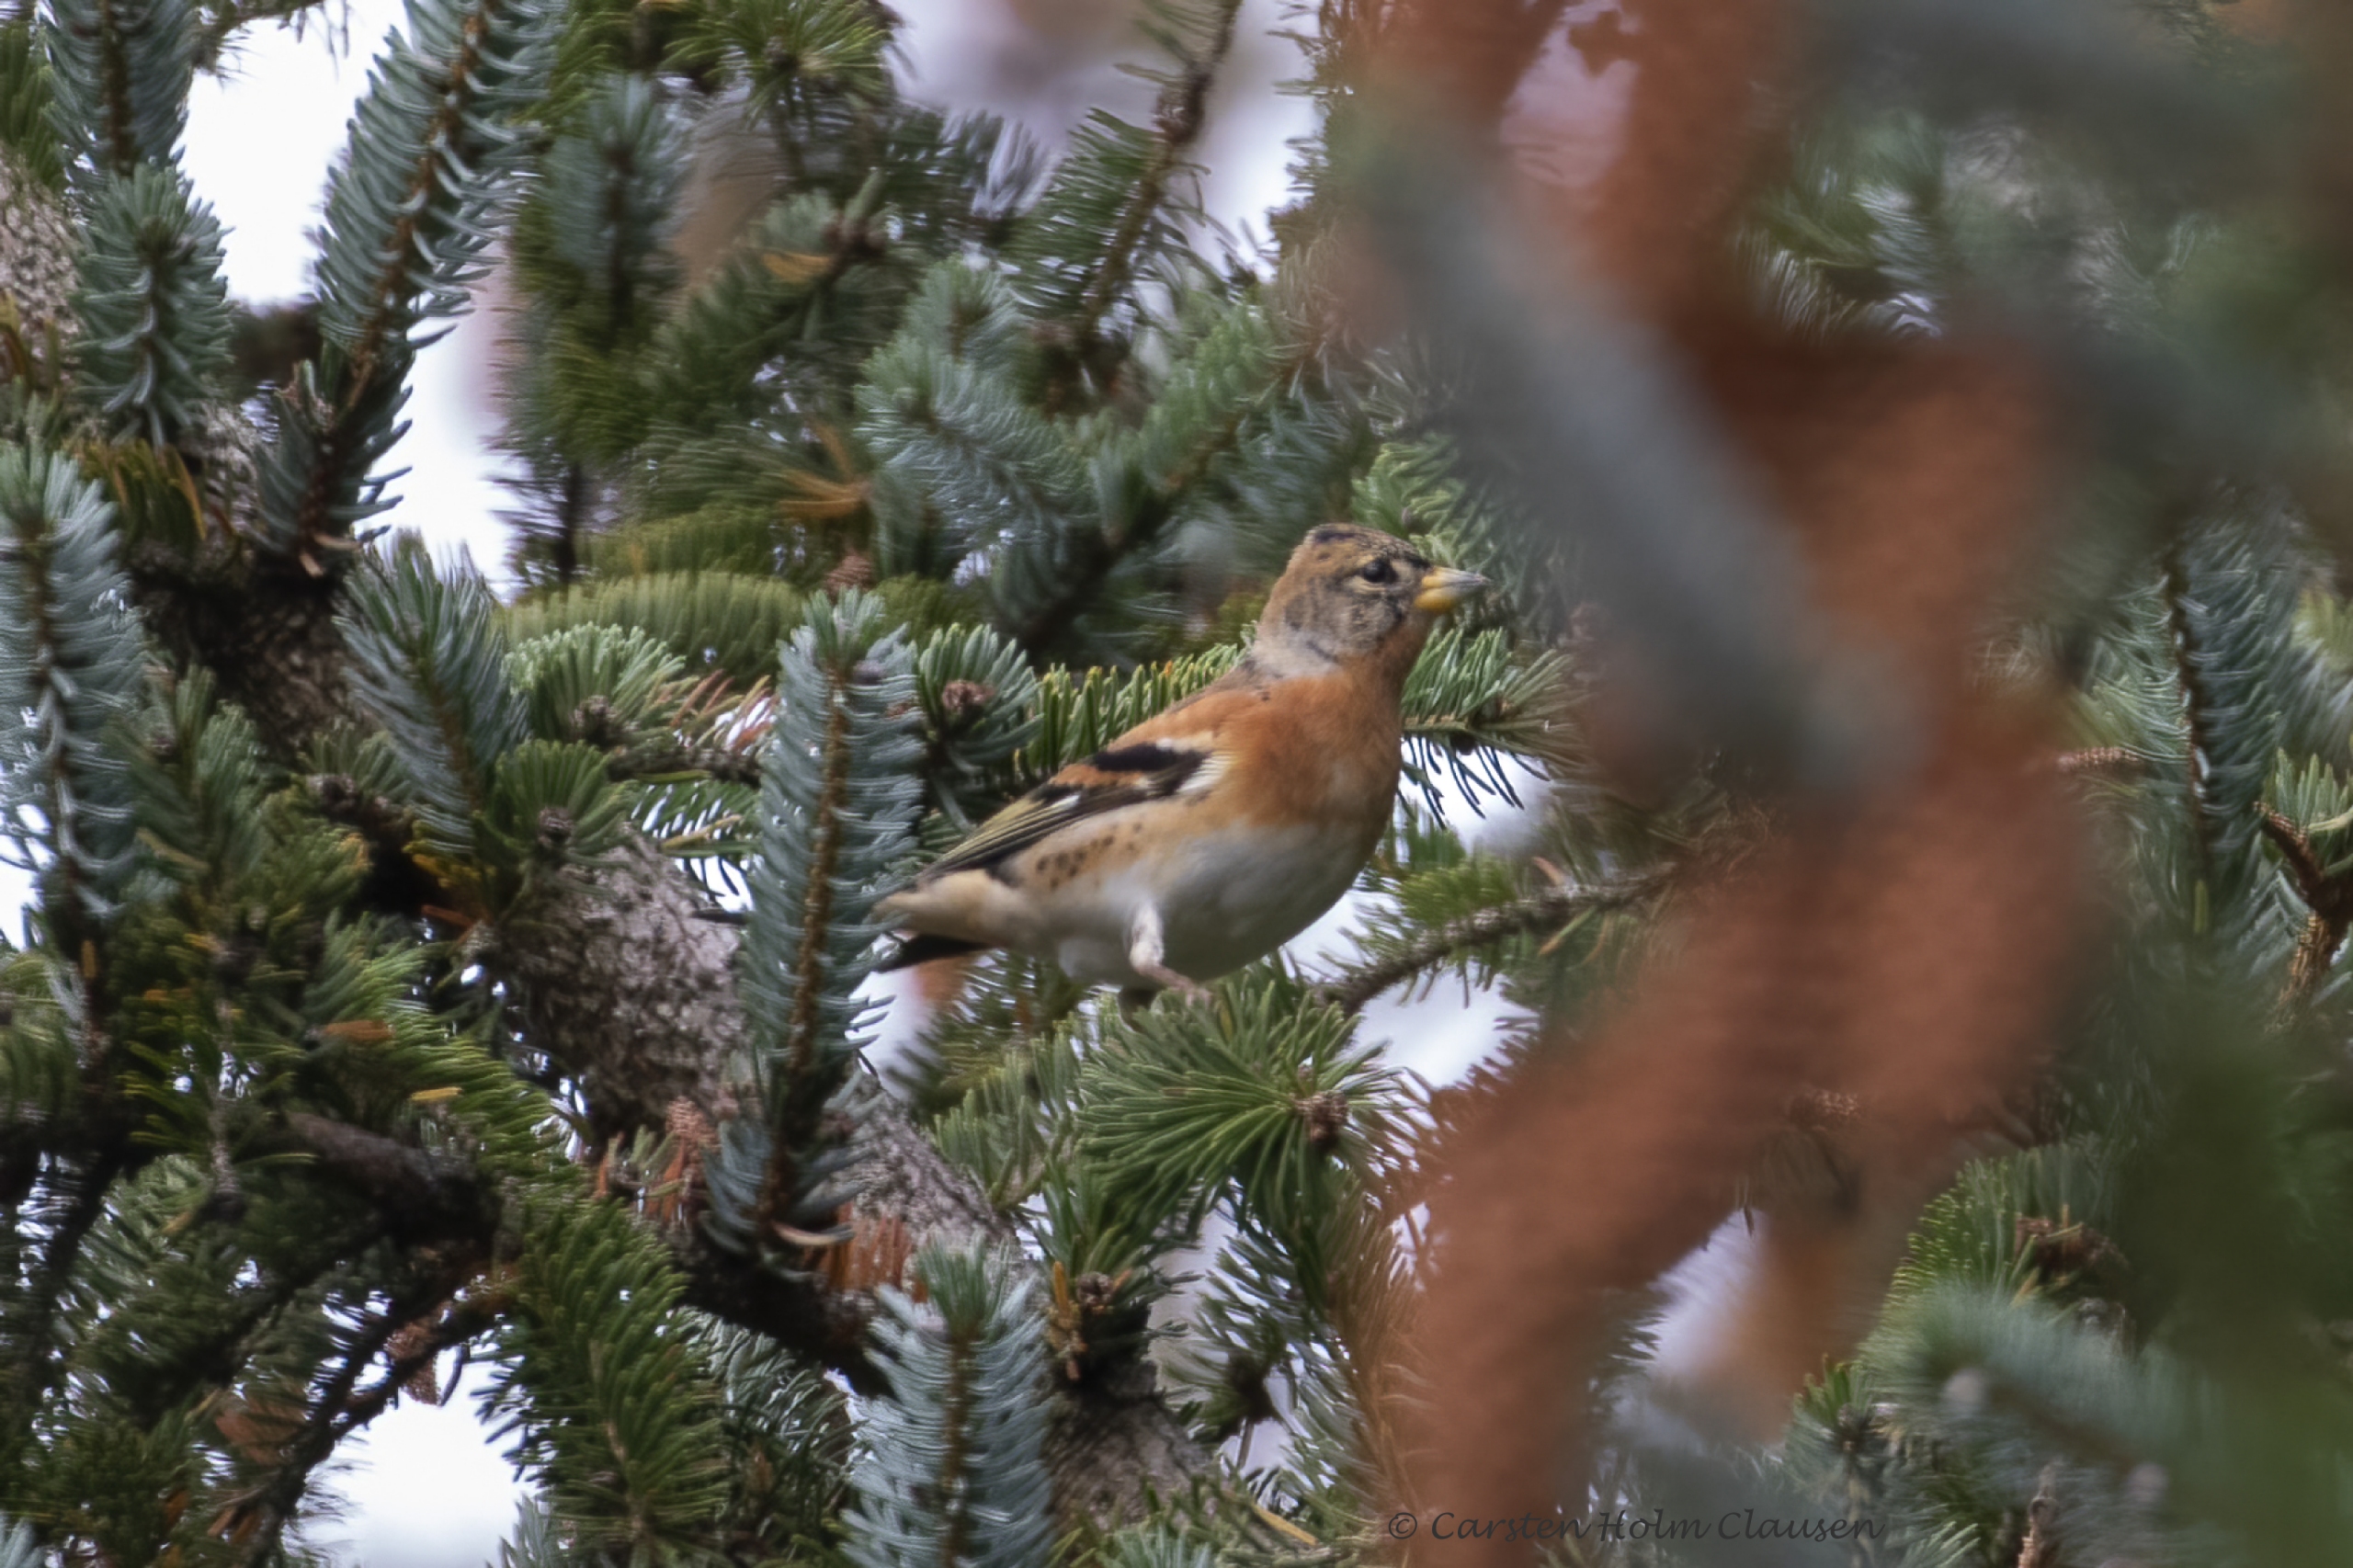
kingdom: Animalia
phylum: Chordata
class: Aves
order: Passeriformes
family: Fringillidae
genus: Fringilla
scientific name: Fringilla montifringilla
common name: Kvækerfinke
